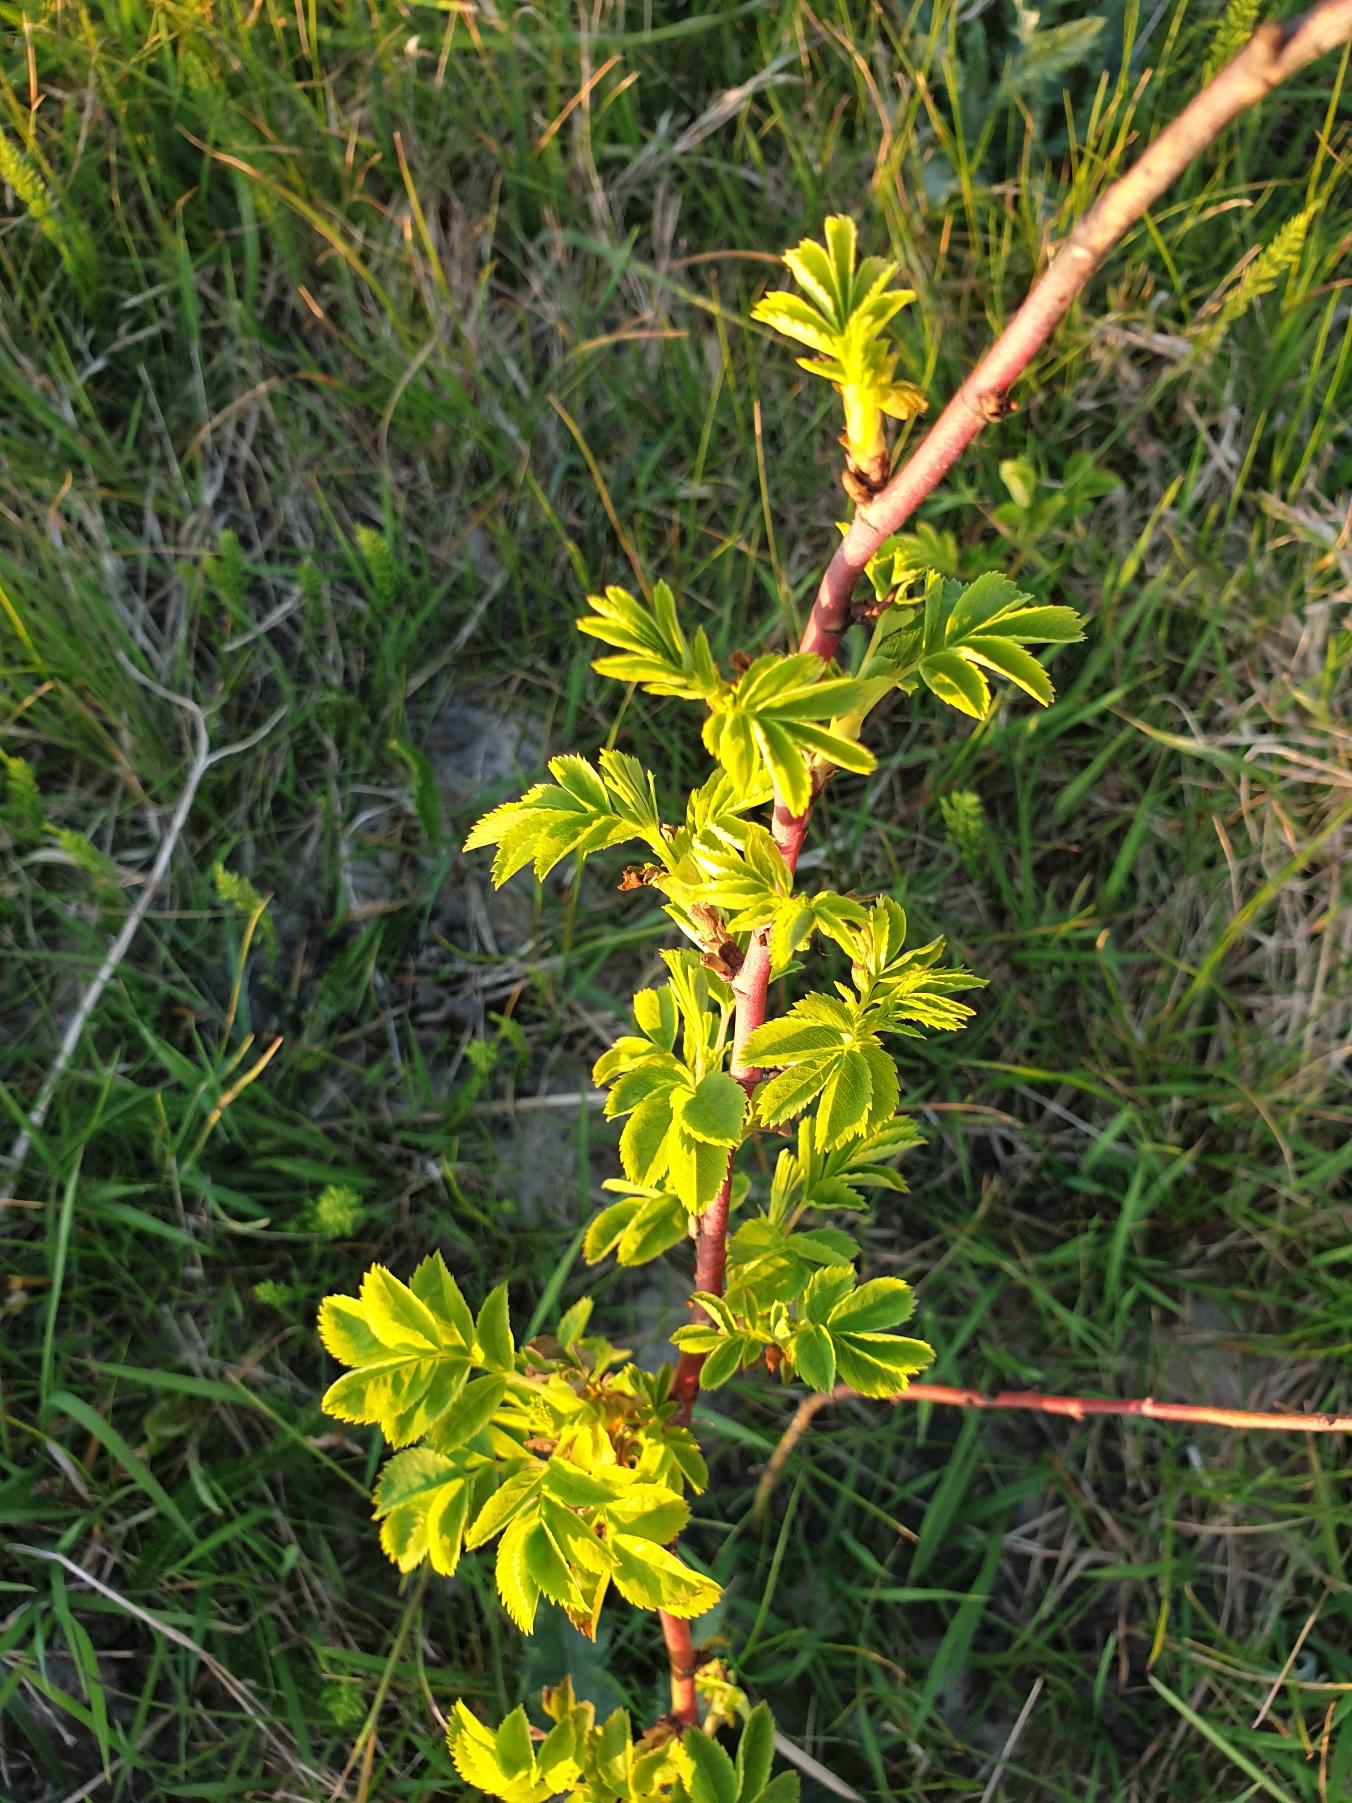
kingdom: Plantae
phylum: Tracheophyta
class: Magnoliopsida
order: Rosales
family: Rosaceae
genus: Rosa
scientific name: Rosa
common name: Roseslægten
